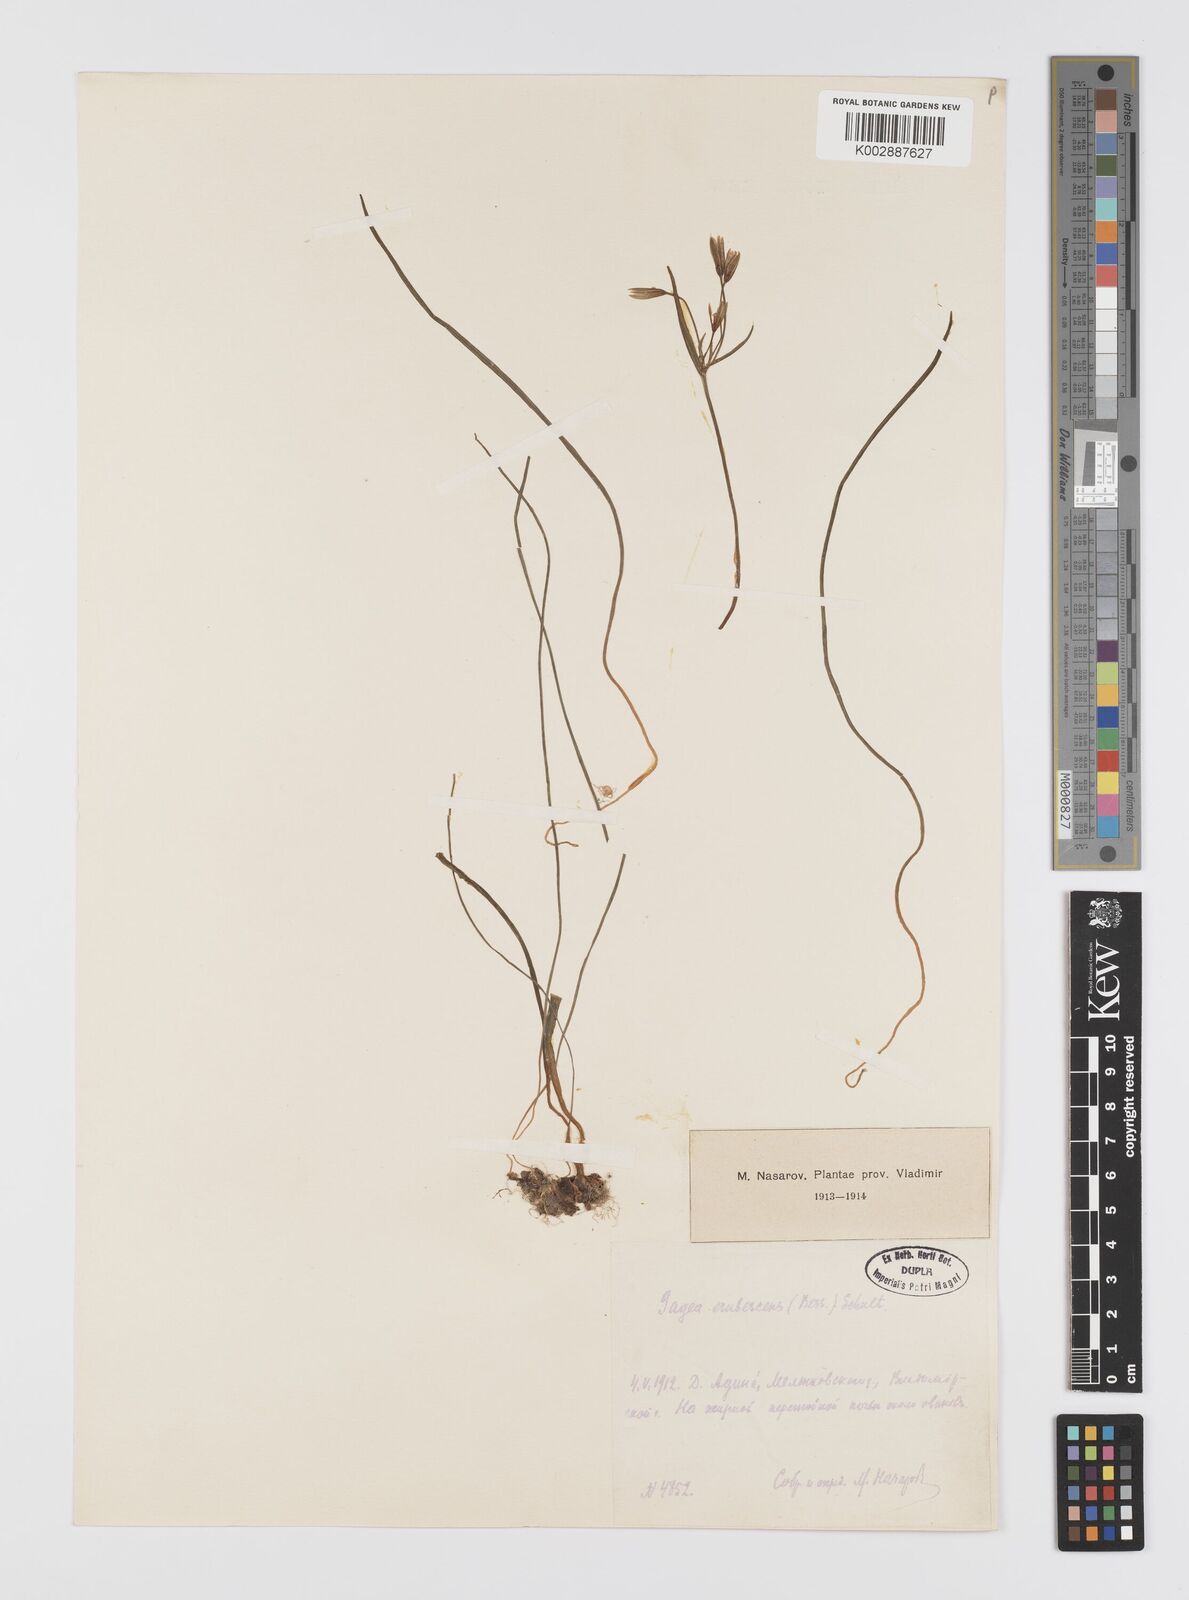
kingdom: Plantae
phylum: Tracheophyta
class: Liliopsida
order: Liliales
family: Liliaceae
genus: Gagea
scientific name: Gagea fragifera
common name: Lily
